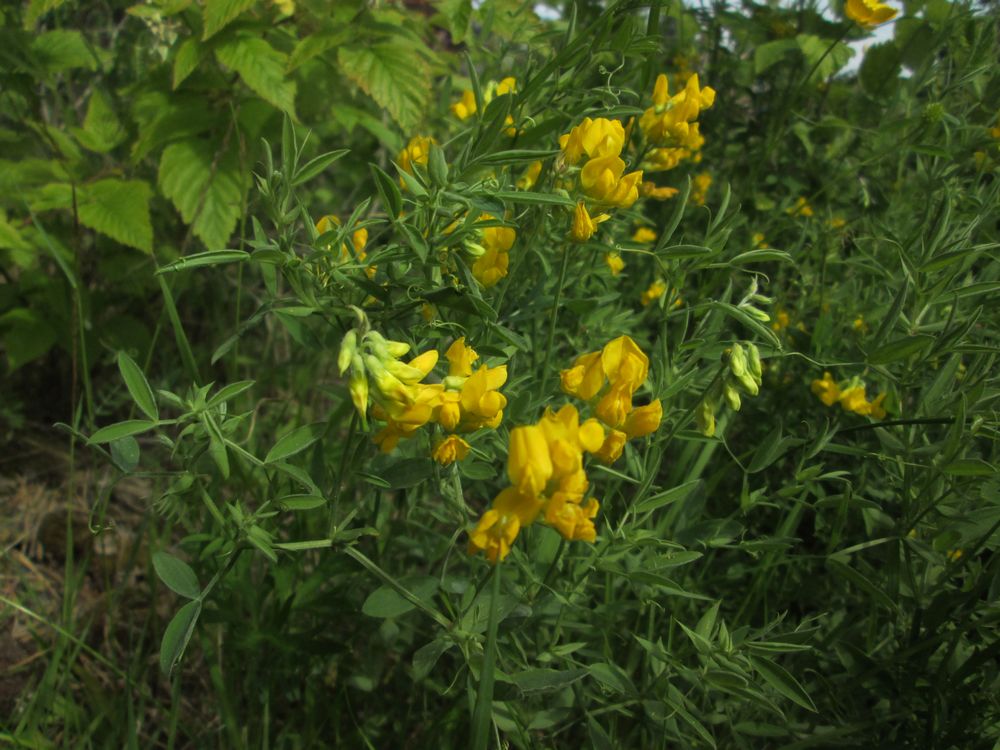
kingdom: Plantae
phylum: Tracheophyta
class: Magnoliopsida
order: Fabales
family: Fabaceae
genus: Lathyrus
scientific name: Lathyrus pratensis
